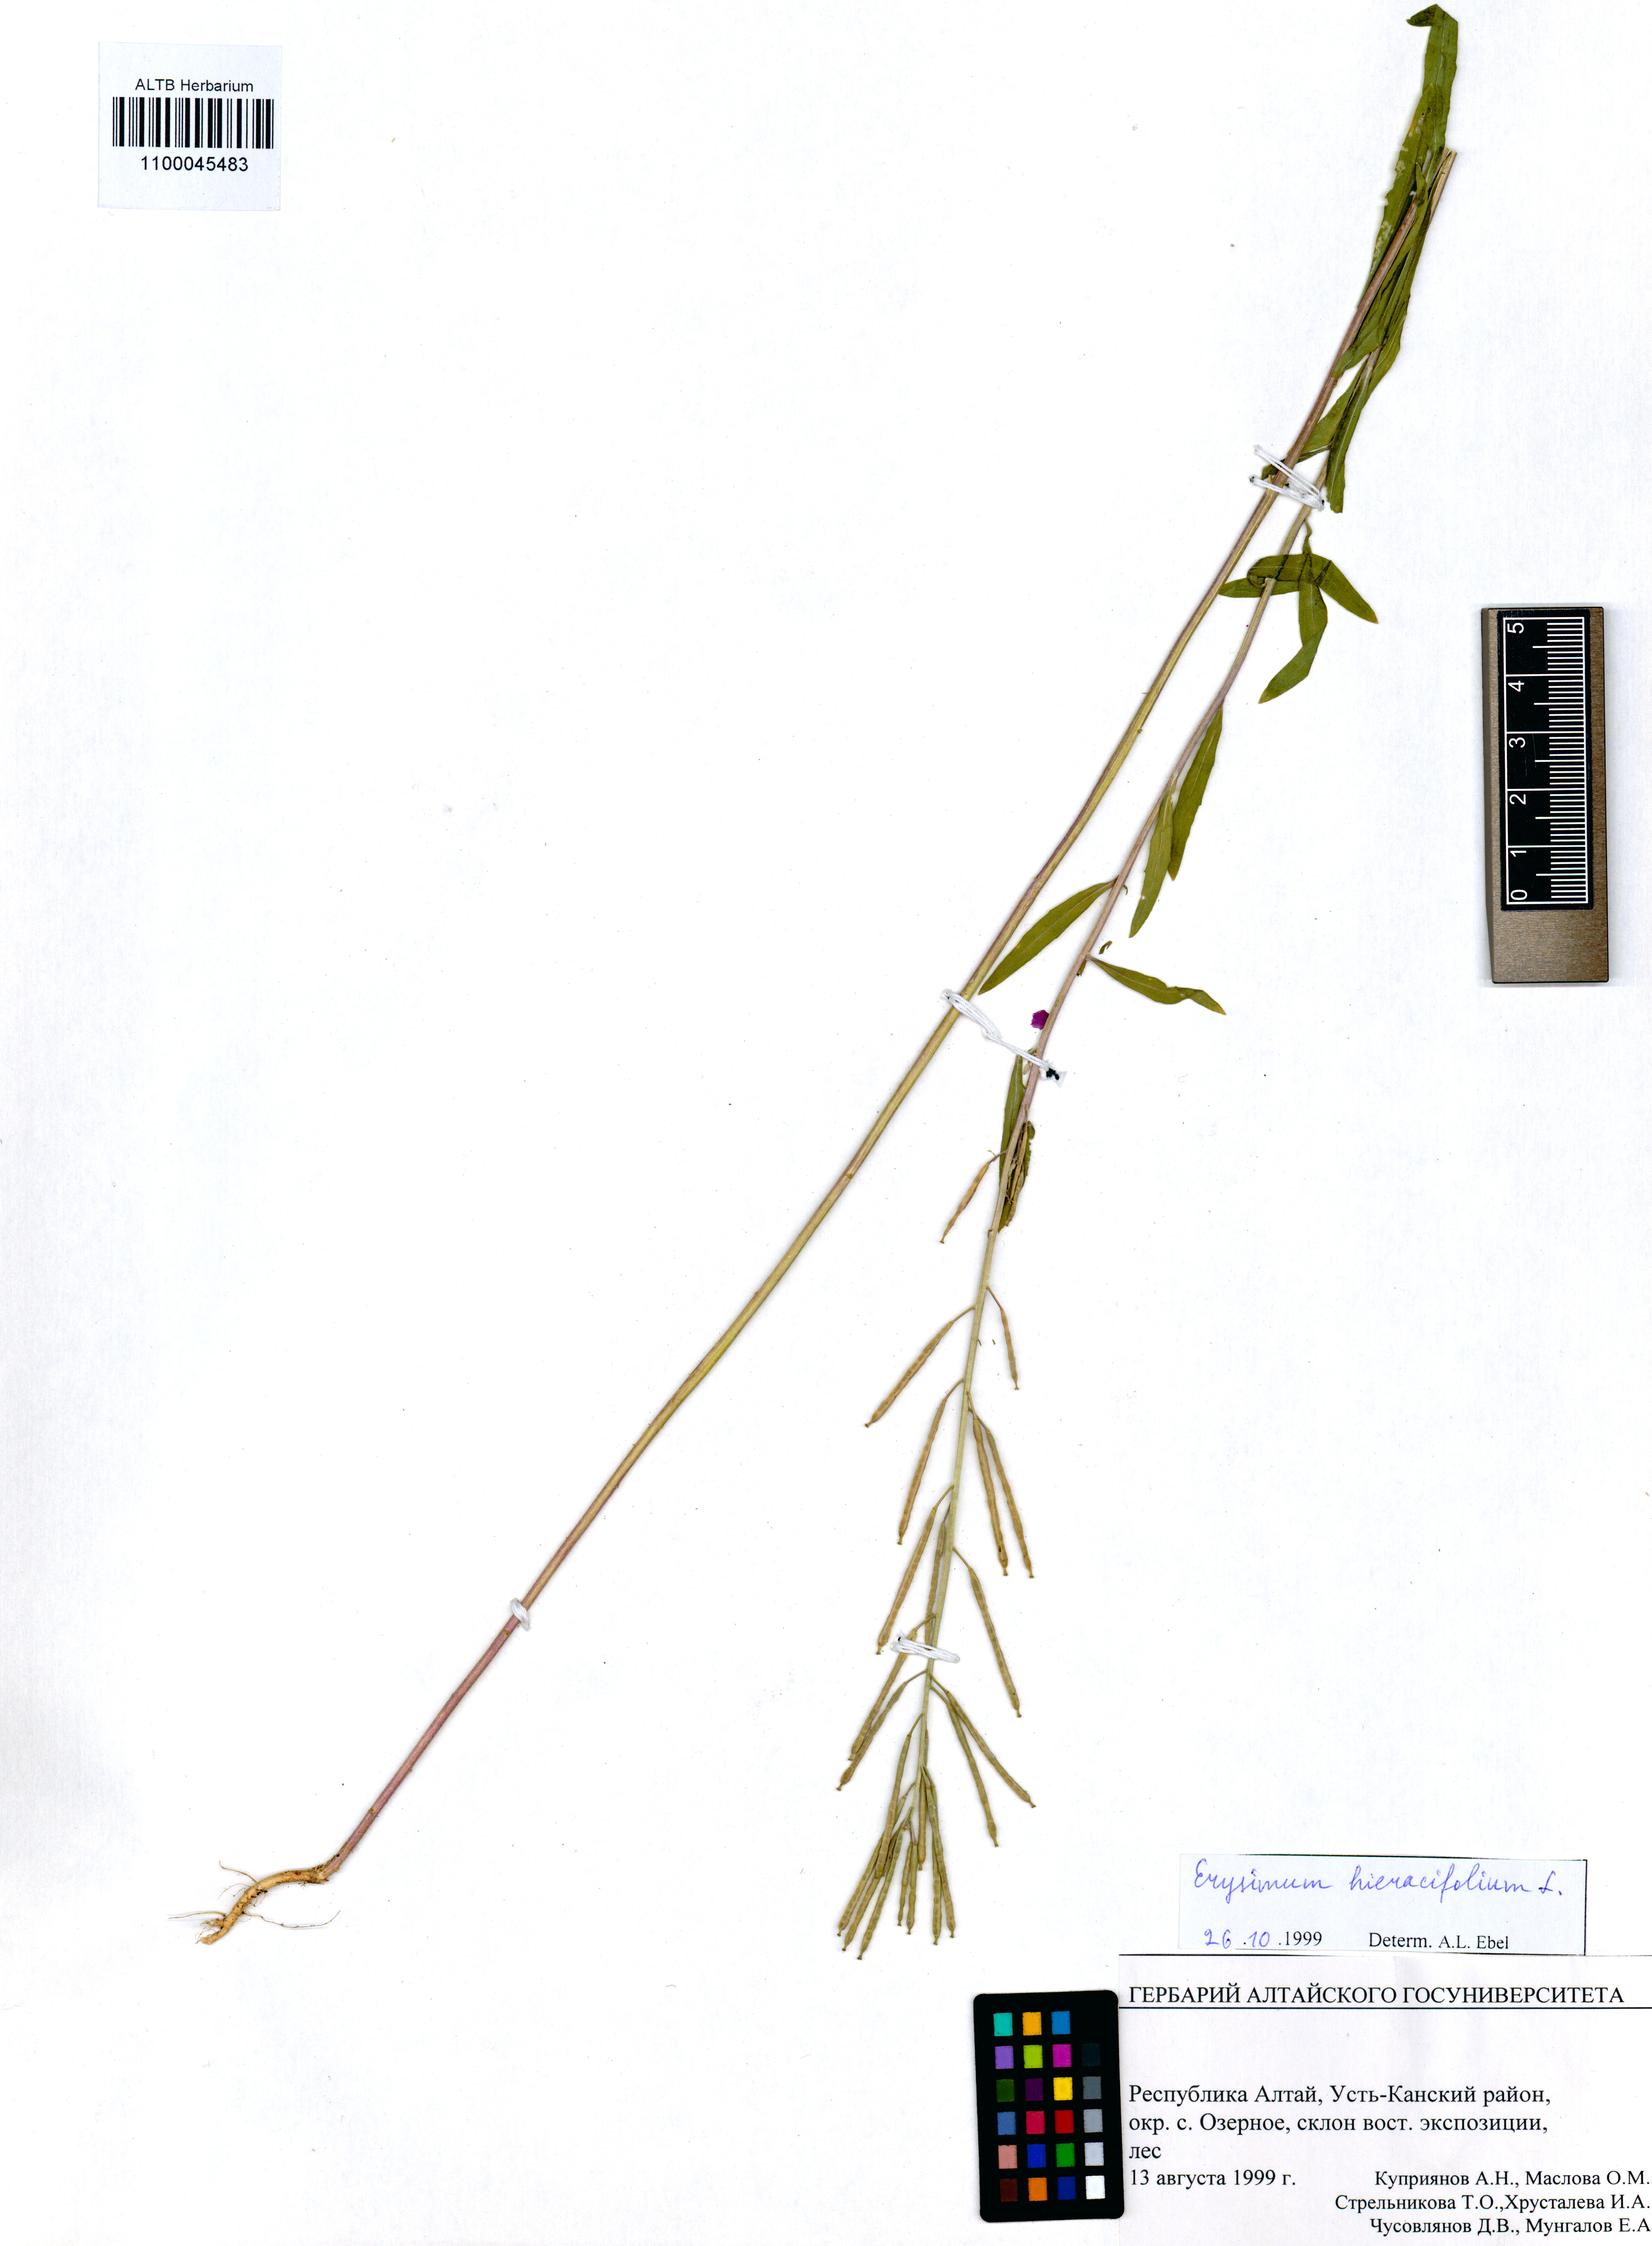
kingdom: Plantae
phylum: Tracheophyta
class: Magnoliopsida
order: Brassicales
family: Brassicaceae
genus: Erysimum
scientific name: Erysimum hieraciifolium
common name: European wallflower
